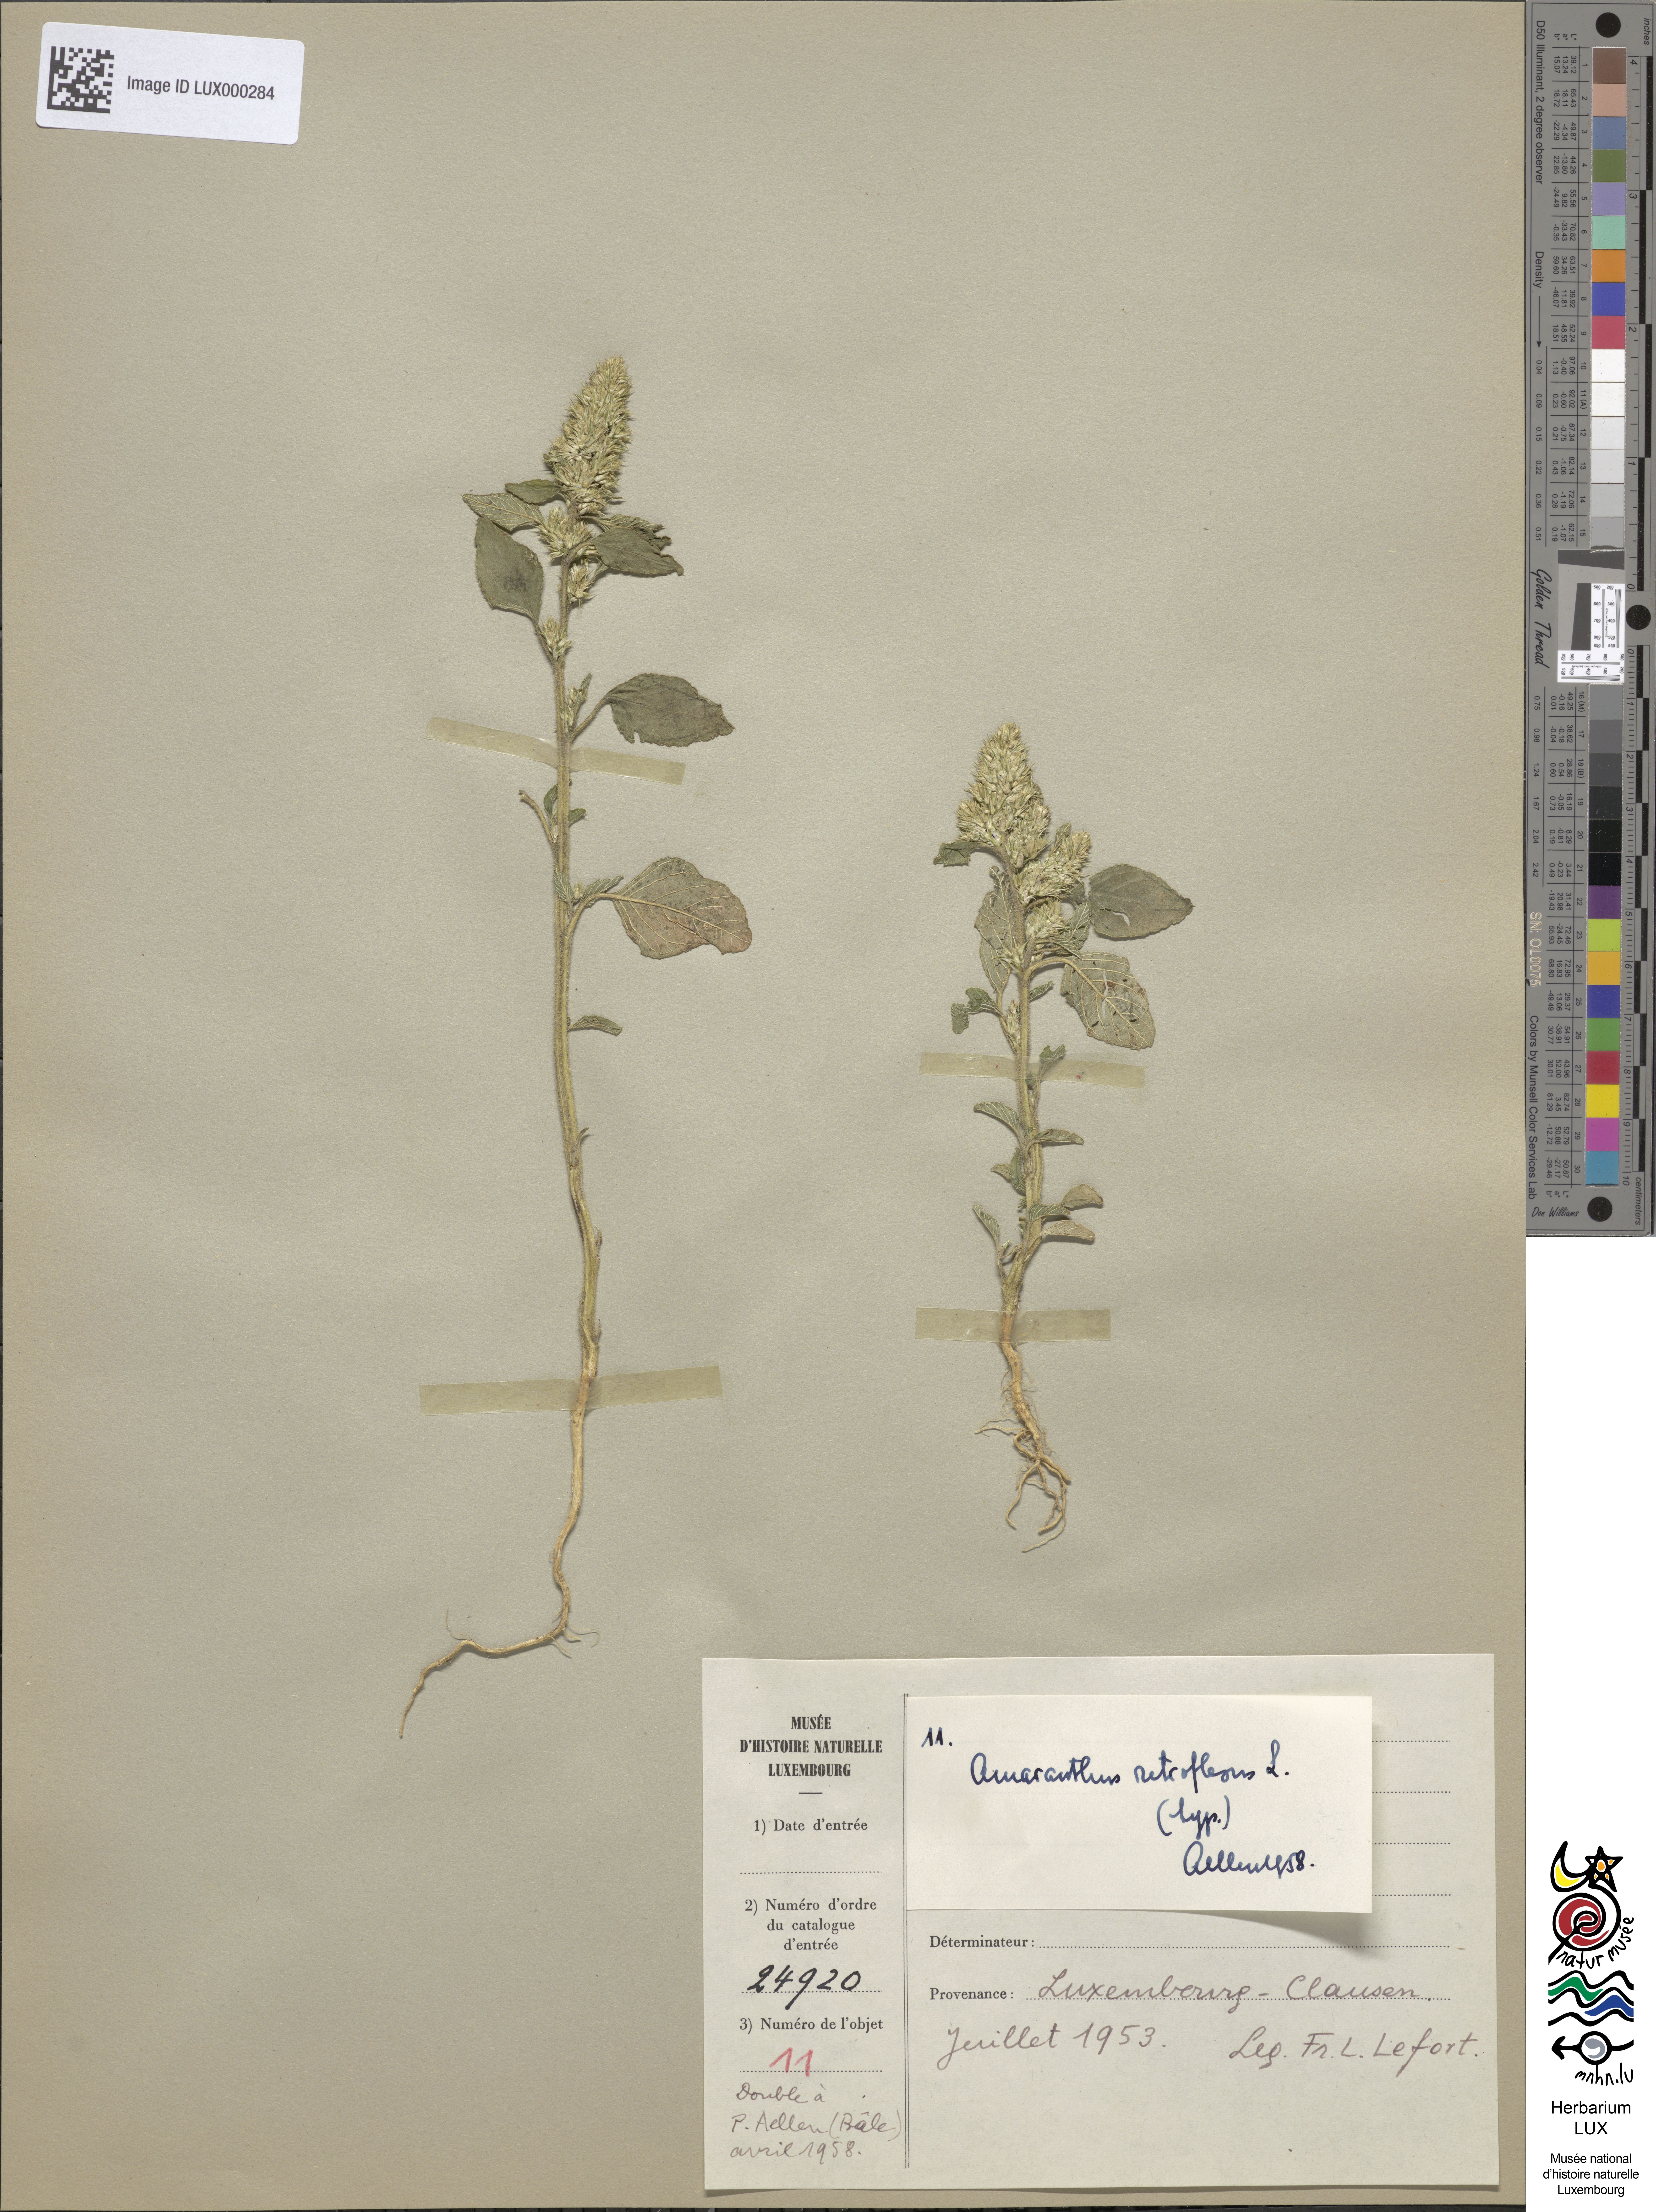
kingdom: Plantae
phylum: Tracheophyta
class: Magnoliopsida
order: Caryophyllales
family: Amaranthaceae
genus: Amaranthus
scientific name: Amaranthus retroflexus
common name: Redroot amaranth
